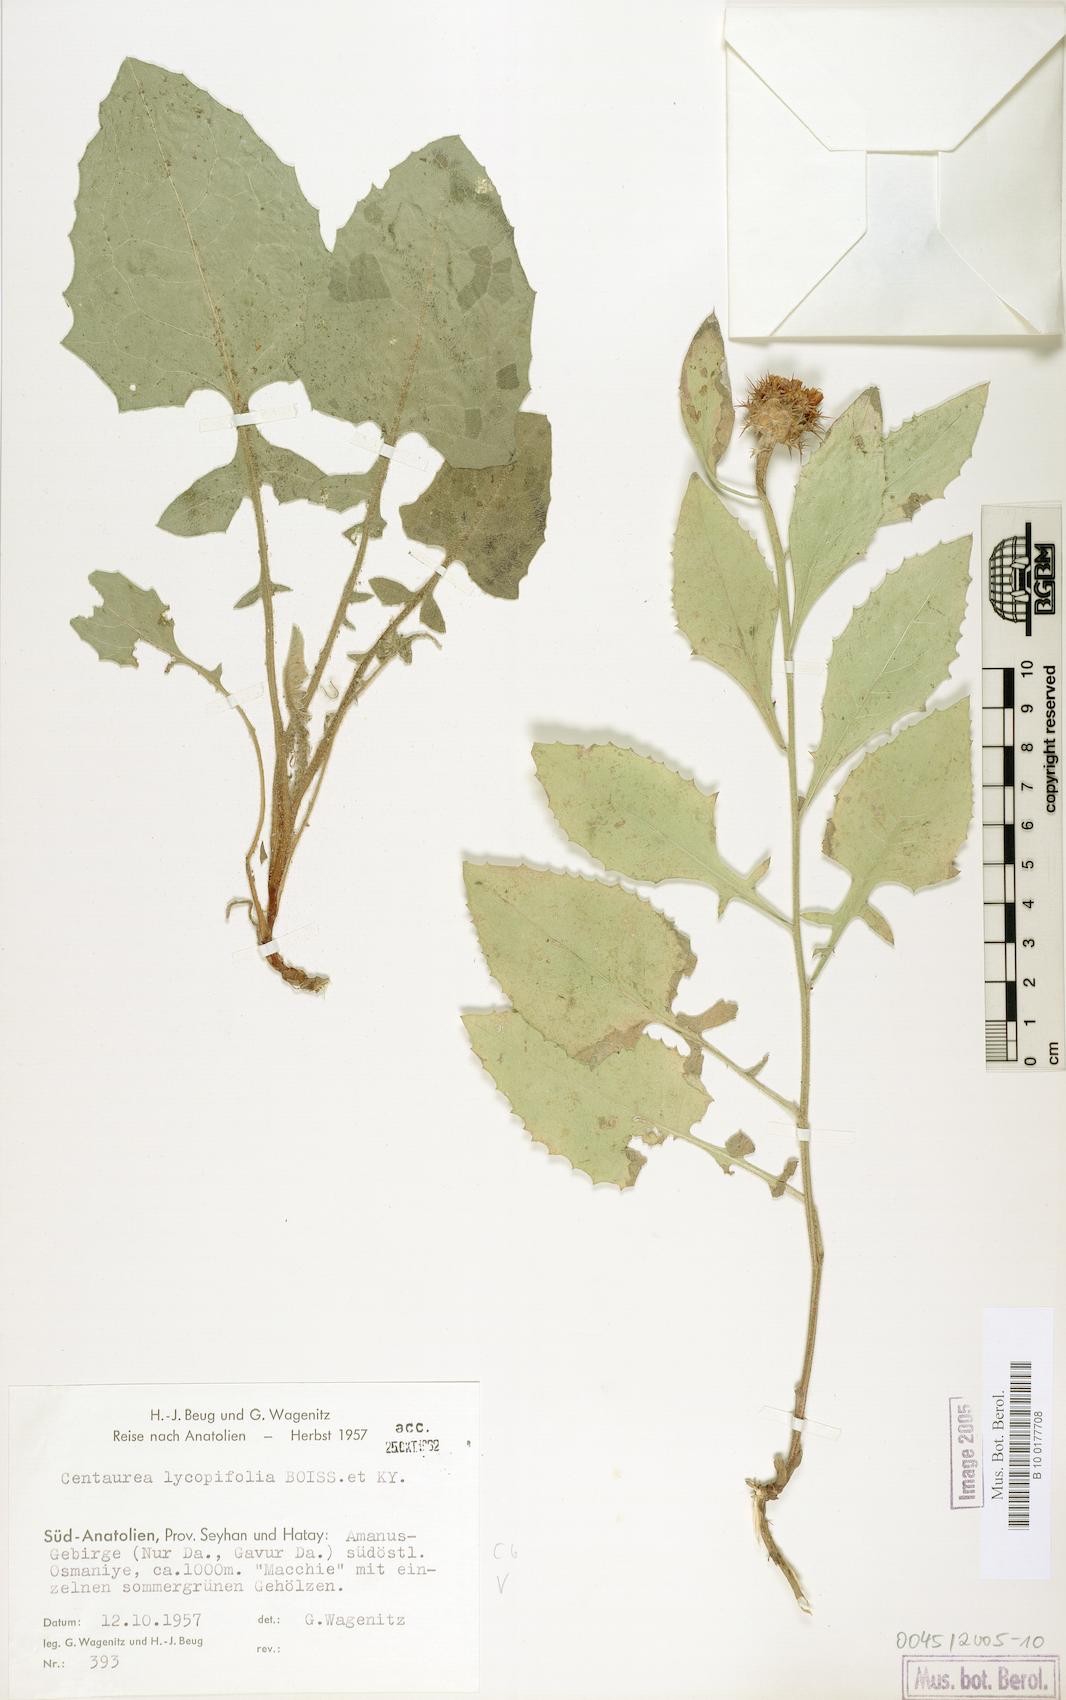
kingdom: Plantae
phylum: Tracheophyta
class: Magnoliopsida
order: Asterales
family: Asteraceae
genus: Centaurea
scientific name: Centaurea lycopifolia
